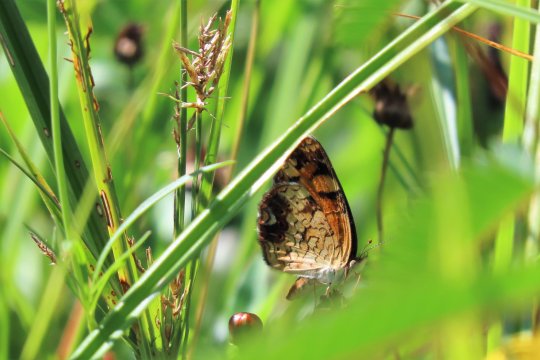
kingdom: Animalia
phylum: Arthropoda
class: Insecta
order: Lepidoptera
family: Nymphalidae
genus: Phyciodes
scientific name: Phyciodes tharos
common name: Pearl Crescent
